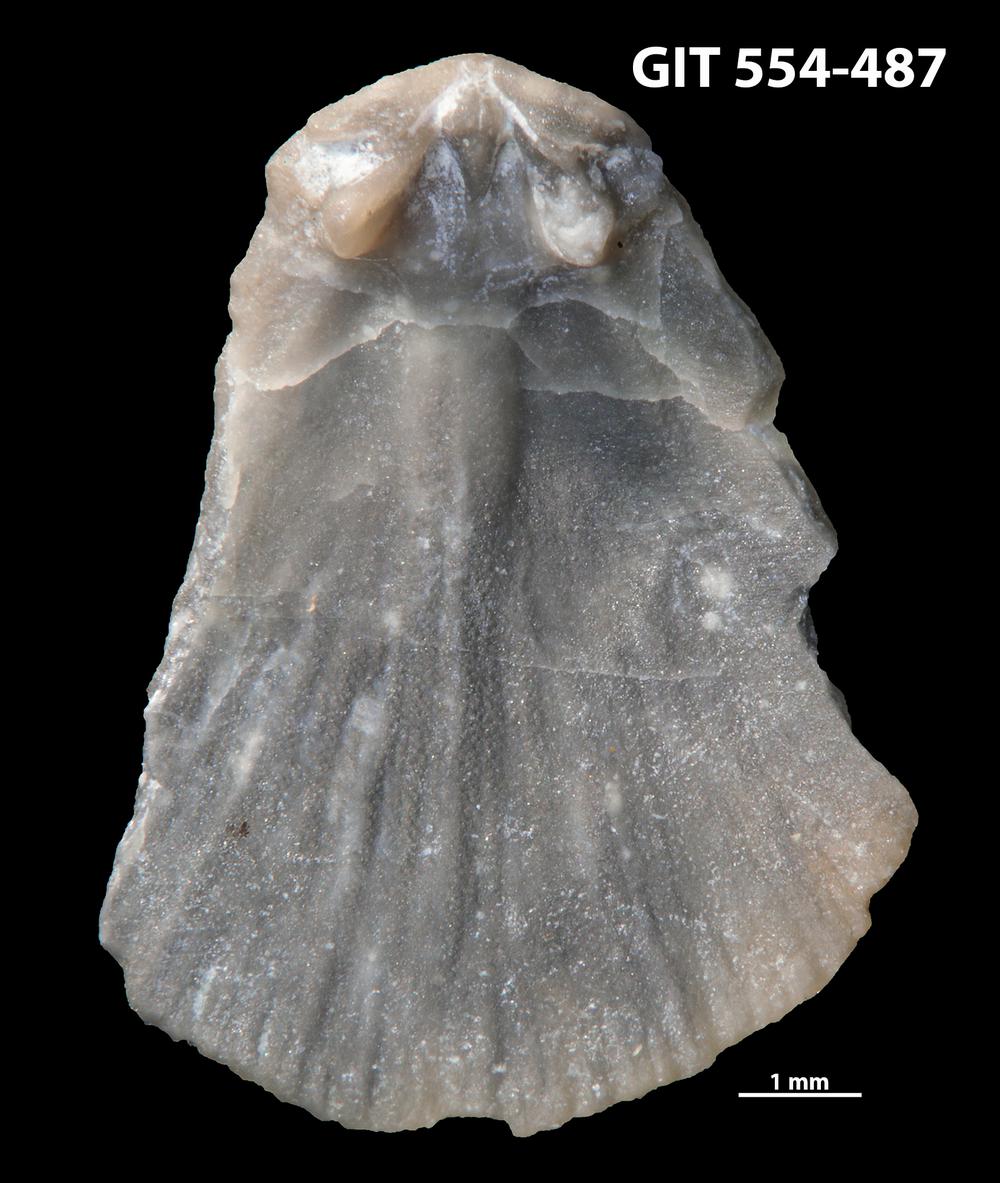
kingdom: Animalia
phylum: Brachiopoda
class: Rhynchonellata
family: Dalmanellidae
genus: Onniella
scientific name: Onniella trigona
